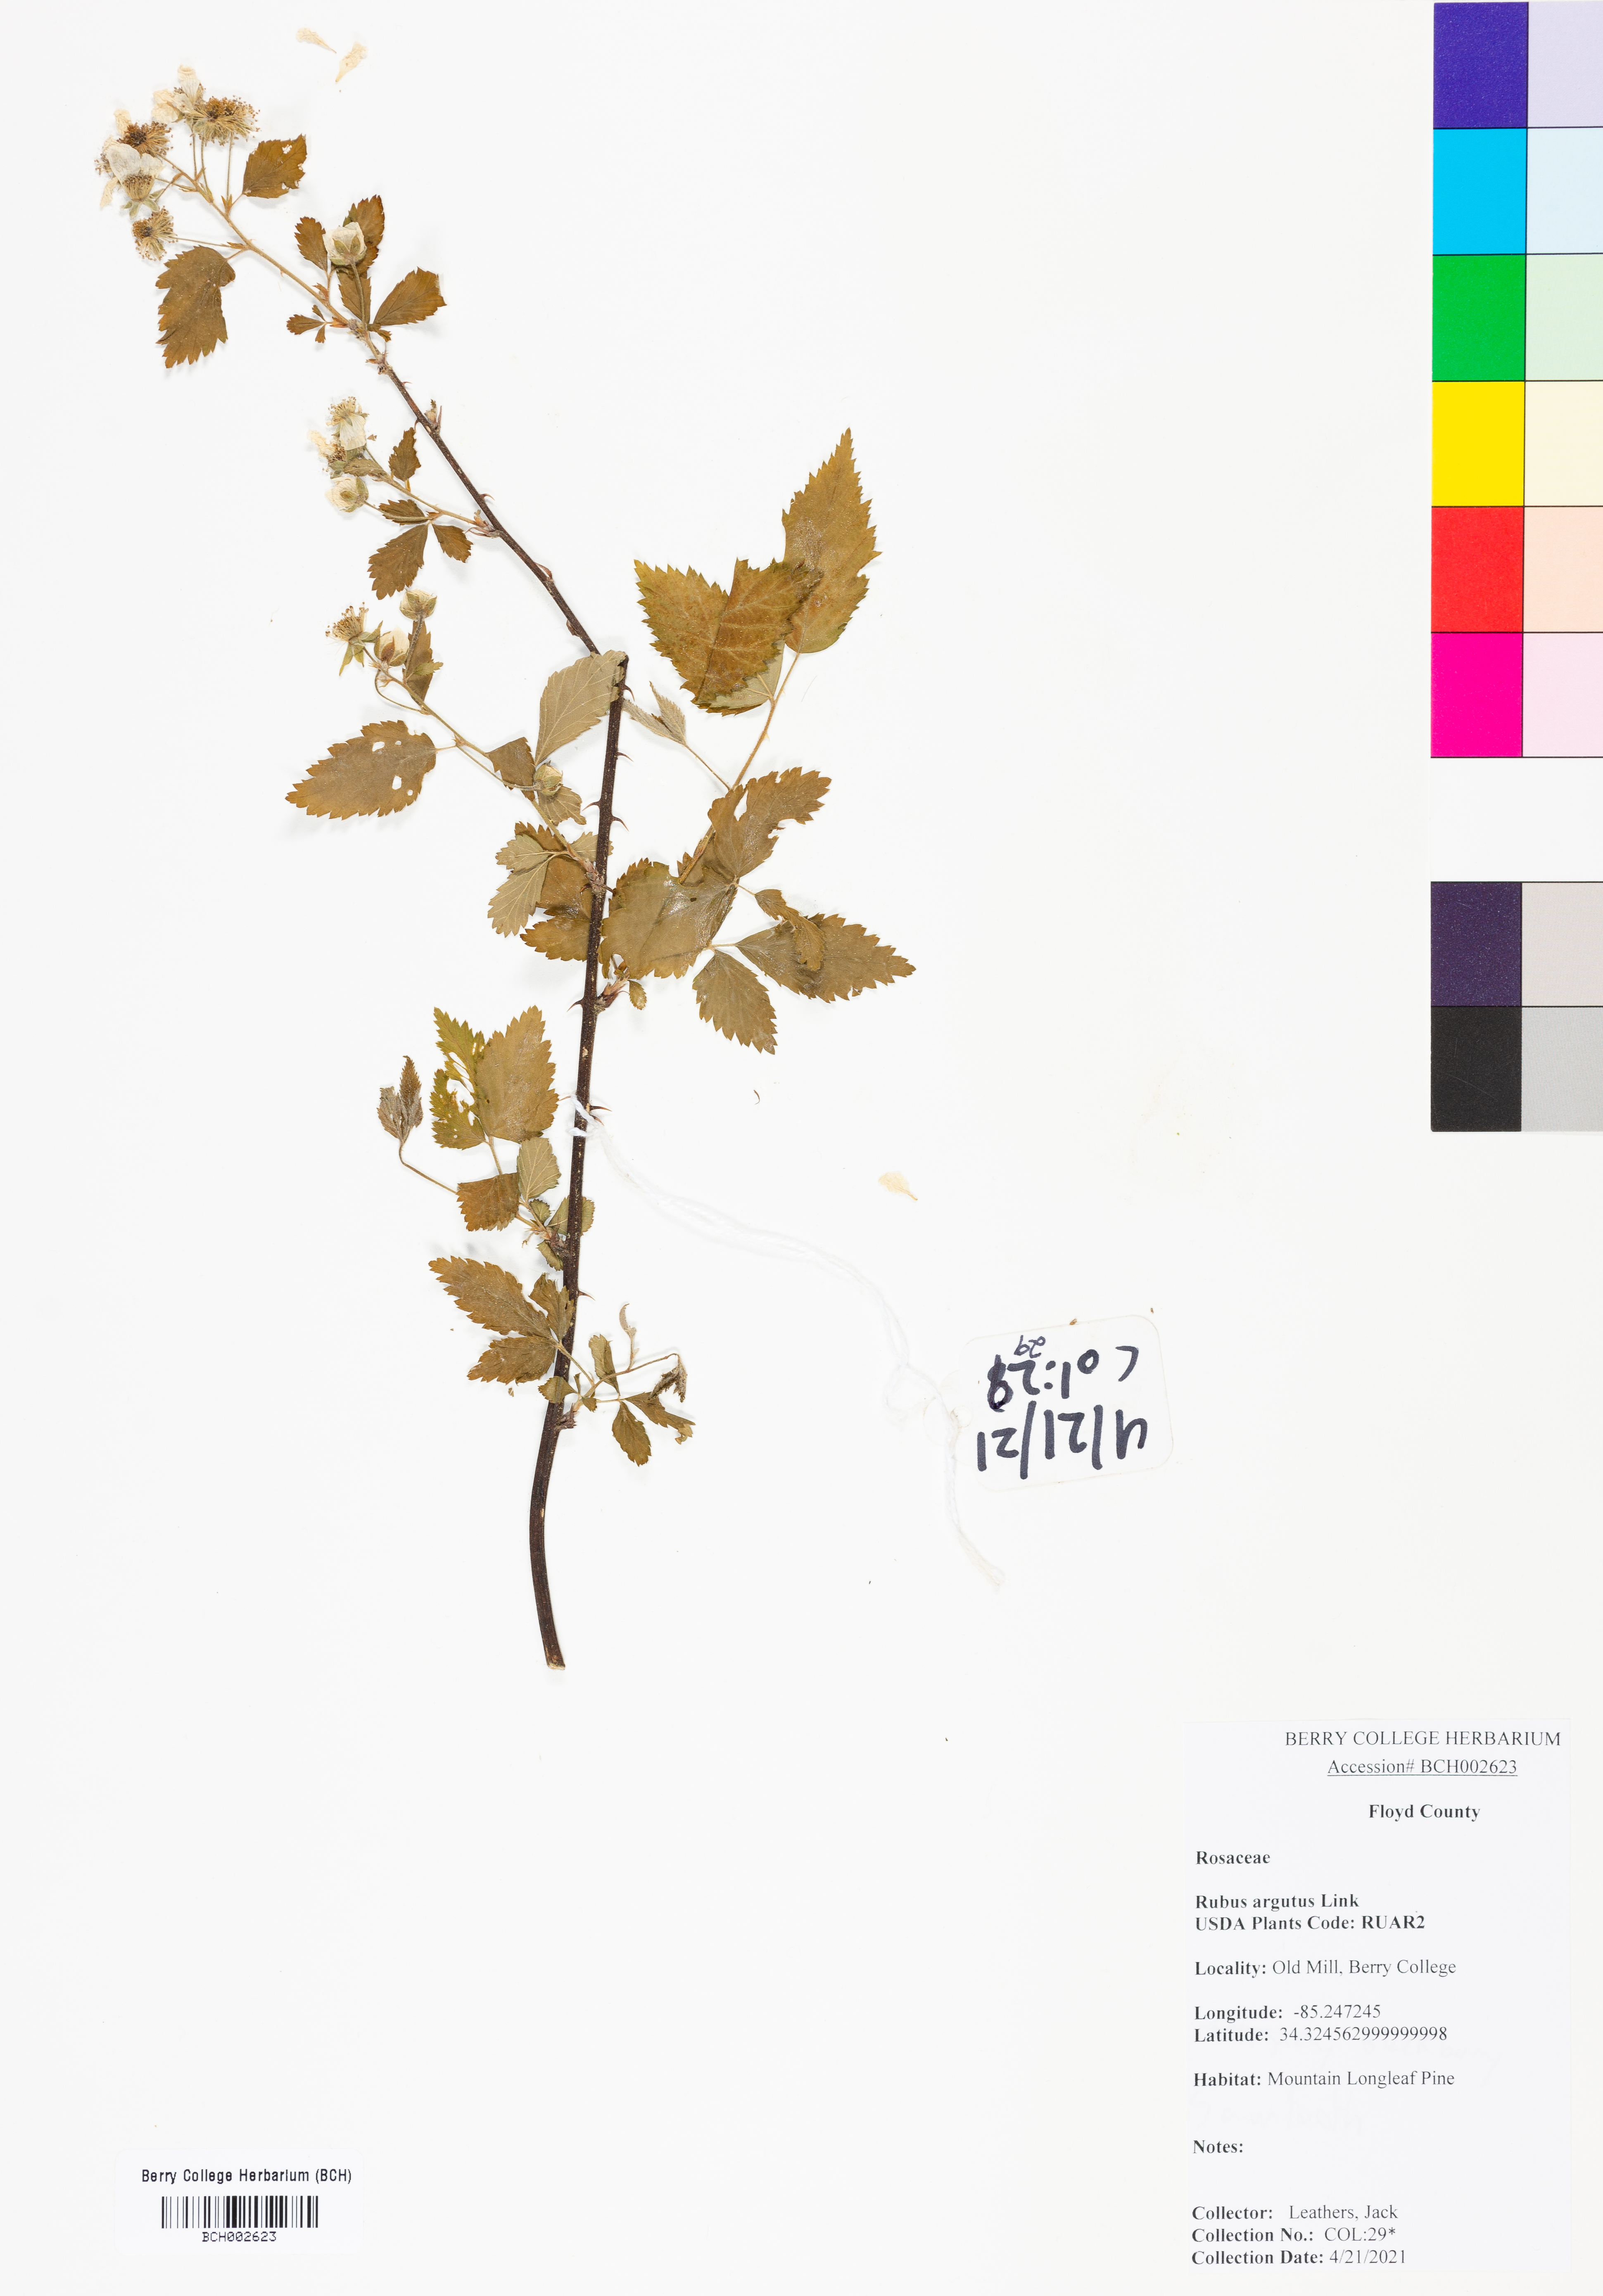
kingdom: Plantae
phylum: Tracheophyta
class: Magnoliopsida
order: Rosales
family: Rosaceae
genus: Rubus
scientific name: Rubus argutus
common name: Sawtooth blackberry
